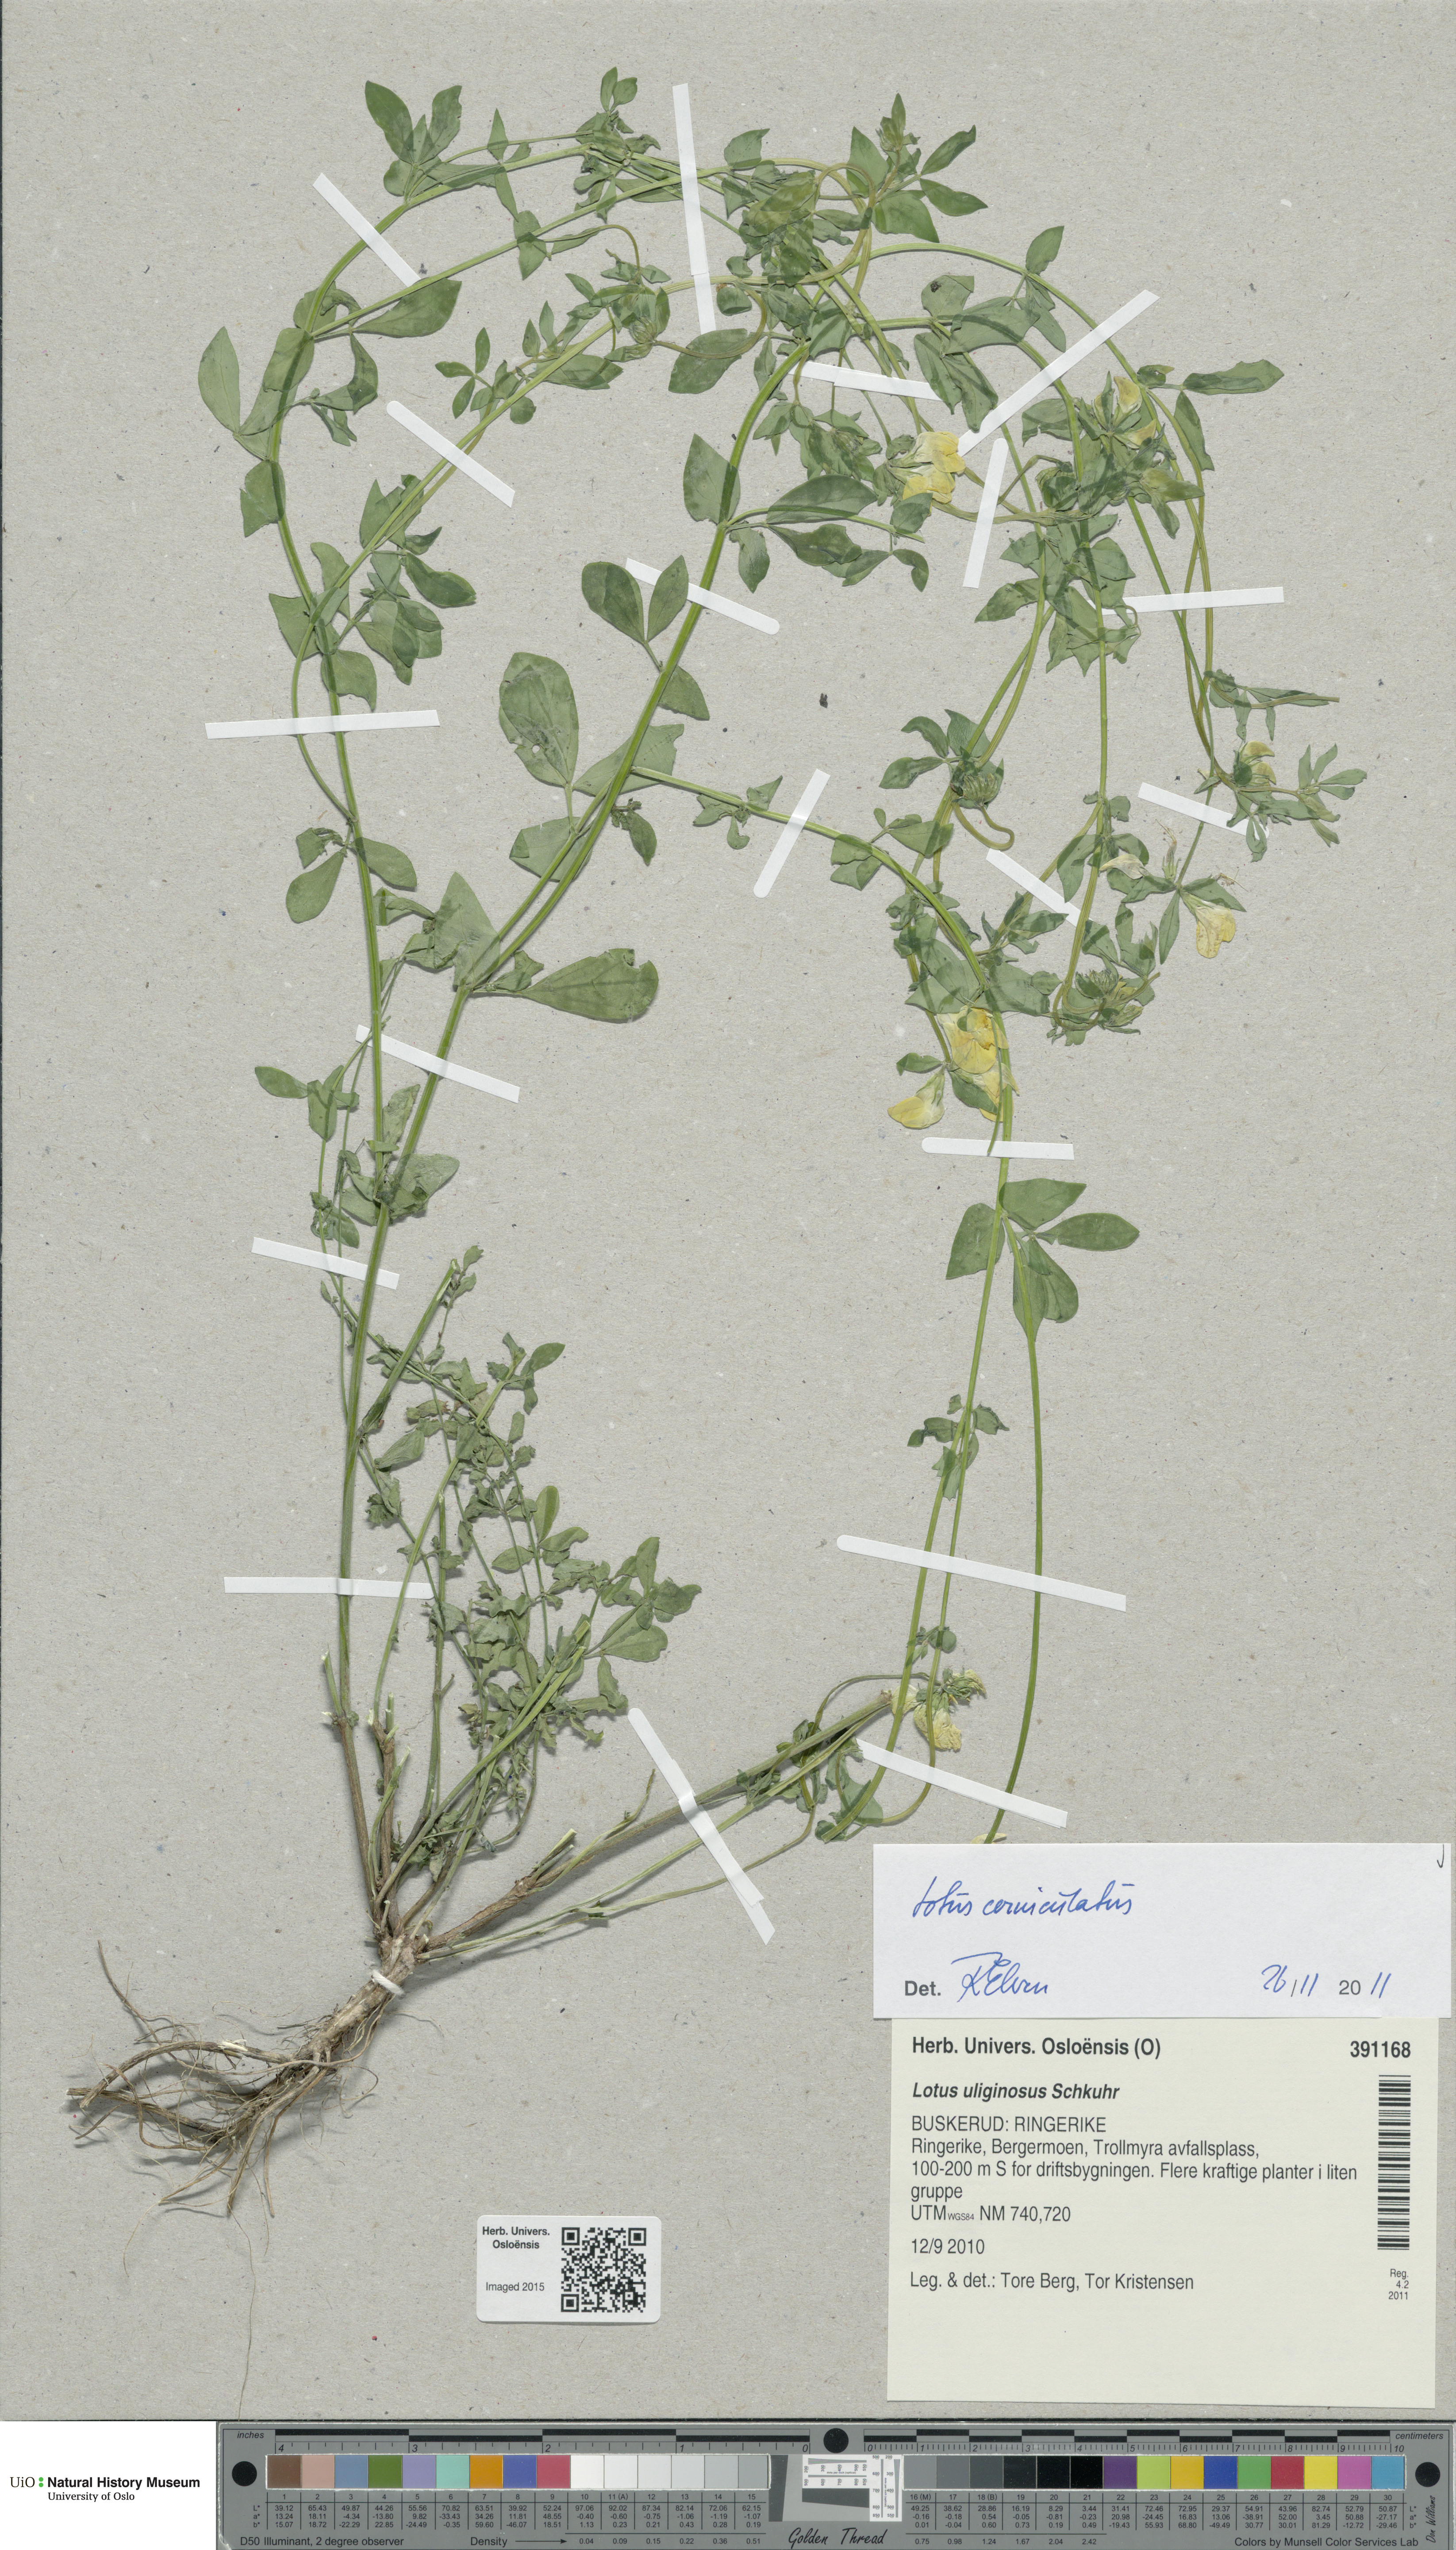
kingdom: Plantae
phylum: Tracheophyta
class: Magnoliopsida
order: Fabales
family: Fabaceae
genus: Lotus
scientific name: Lotus corniculatus
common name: Common bird's-foot-trefoil
